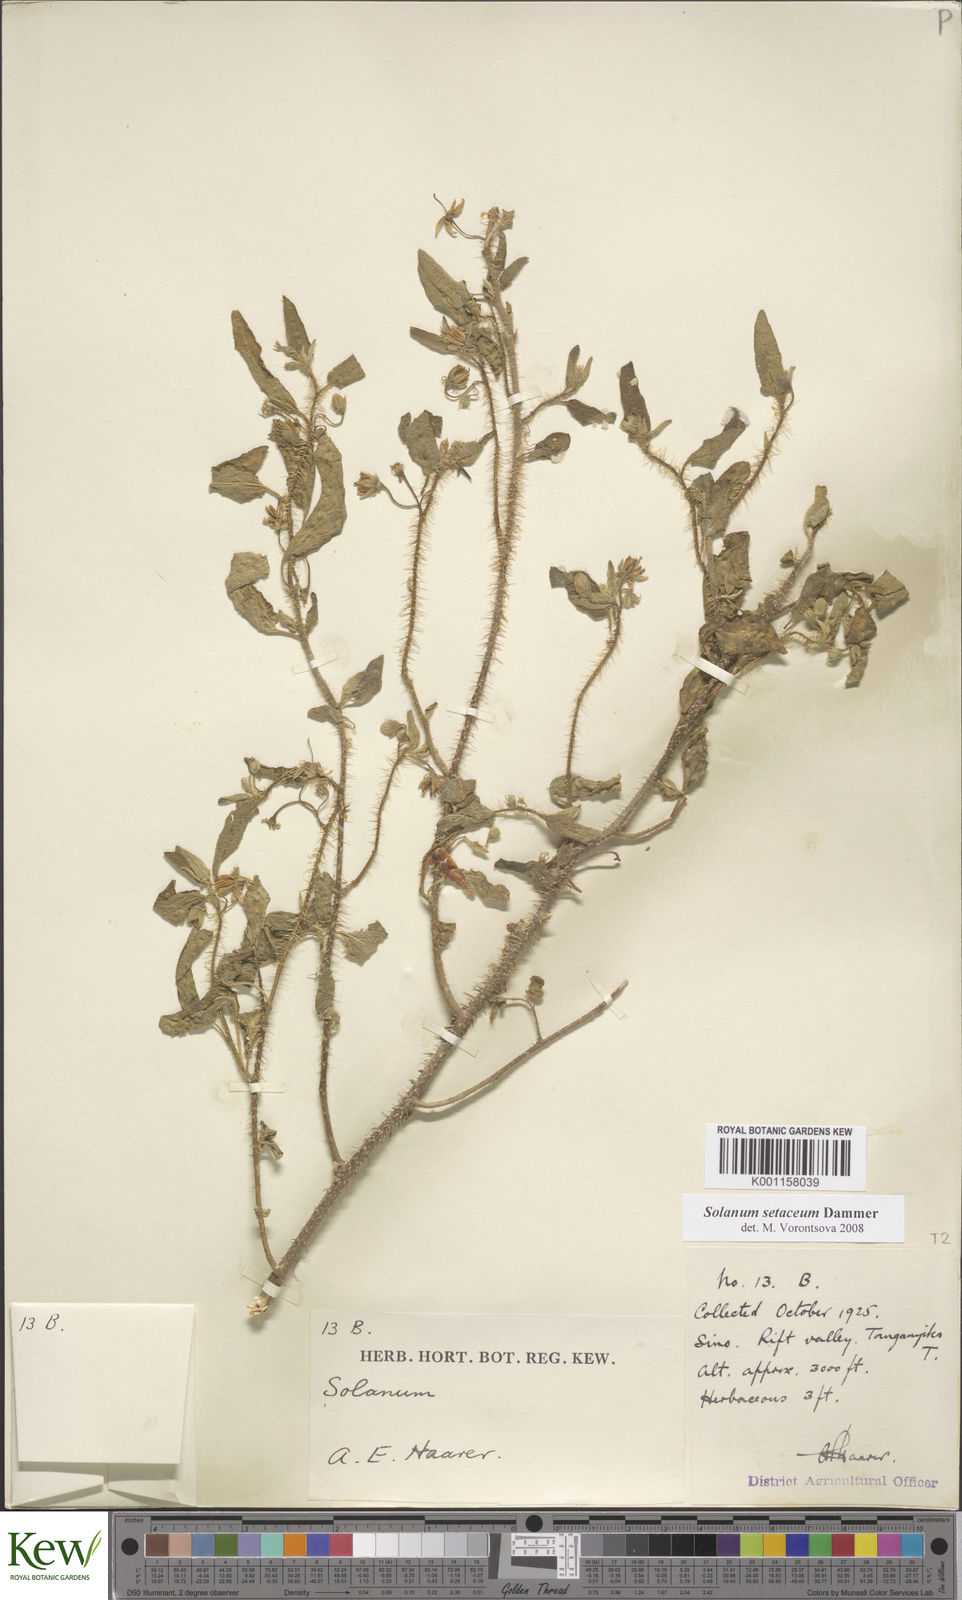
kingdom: Plantae
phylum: Tracheophyta
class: Magnoliopsida
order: Solanales
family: Solanaceae
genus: Solanum
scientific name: Solanum setaceum
